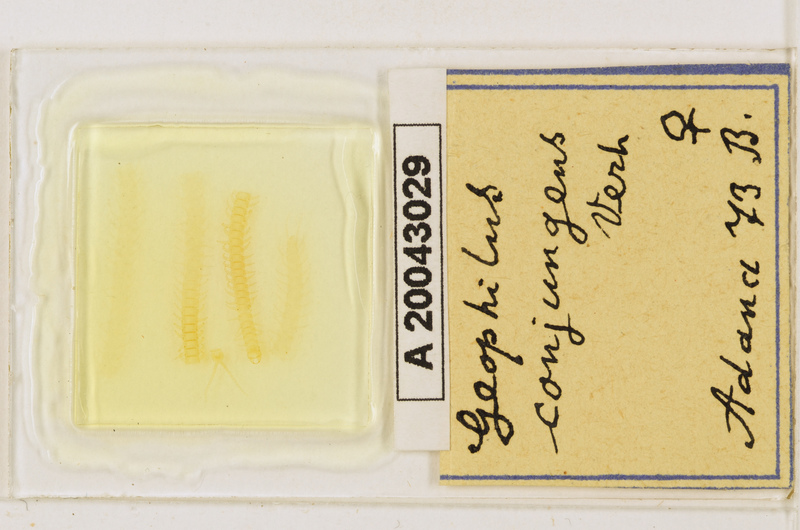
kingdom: Animalia
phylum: Arthropoda
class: Chilopoda
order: Geophilomorpha
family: Geophilidae
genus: Geophilus
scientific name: Geophilus conjungens
